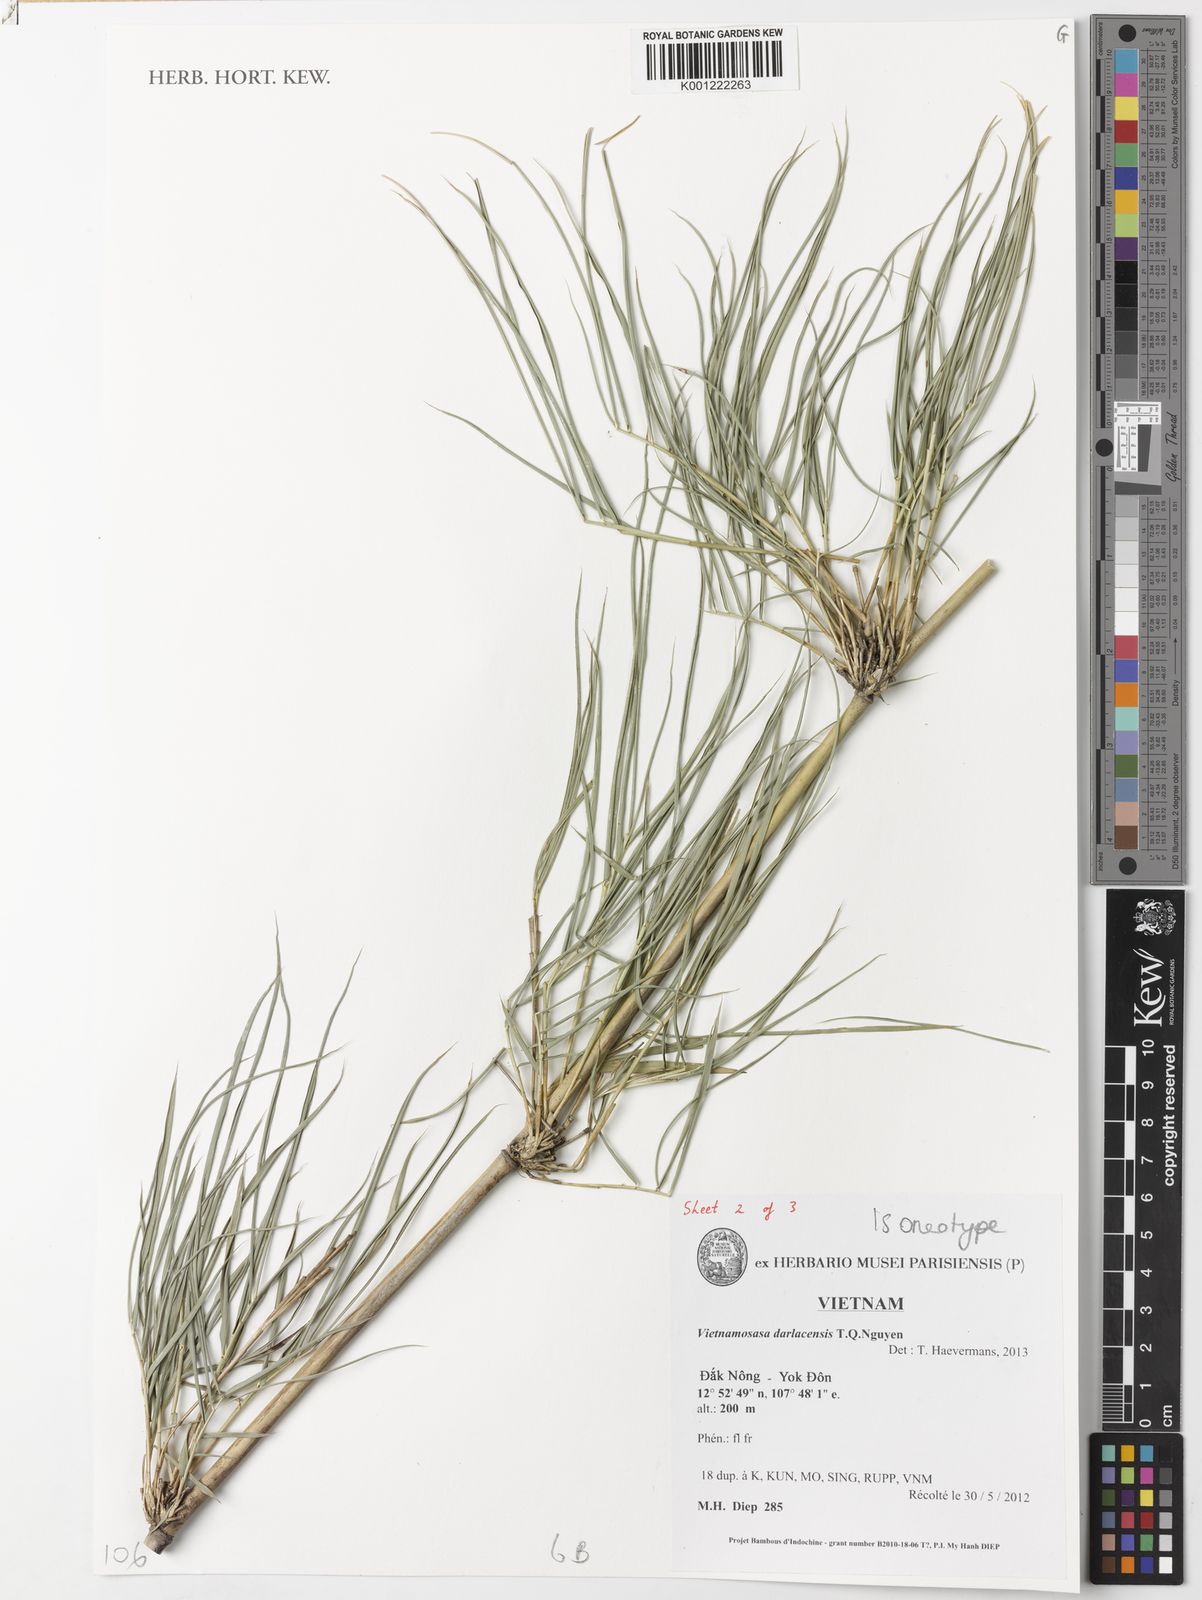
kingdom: Plantae
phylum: Tracheophyta
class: Liliopsida
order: Poales
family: Poaceae
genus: Vietnamosasa
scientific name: Vietnamosasa darlacensis
